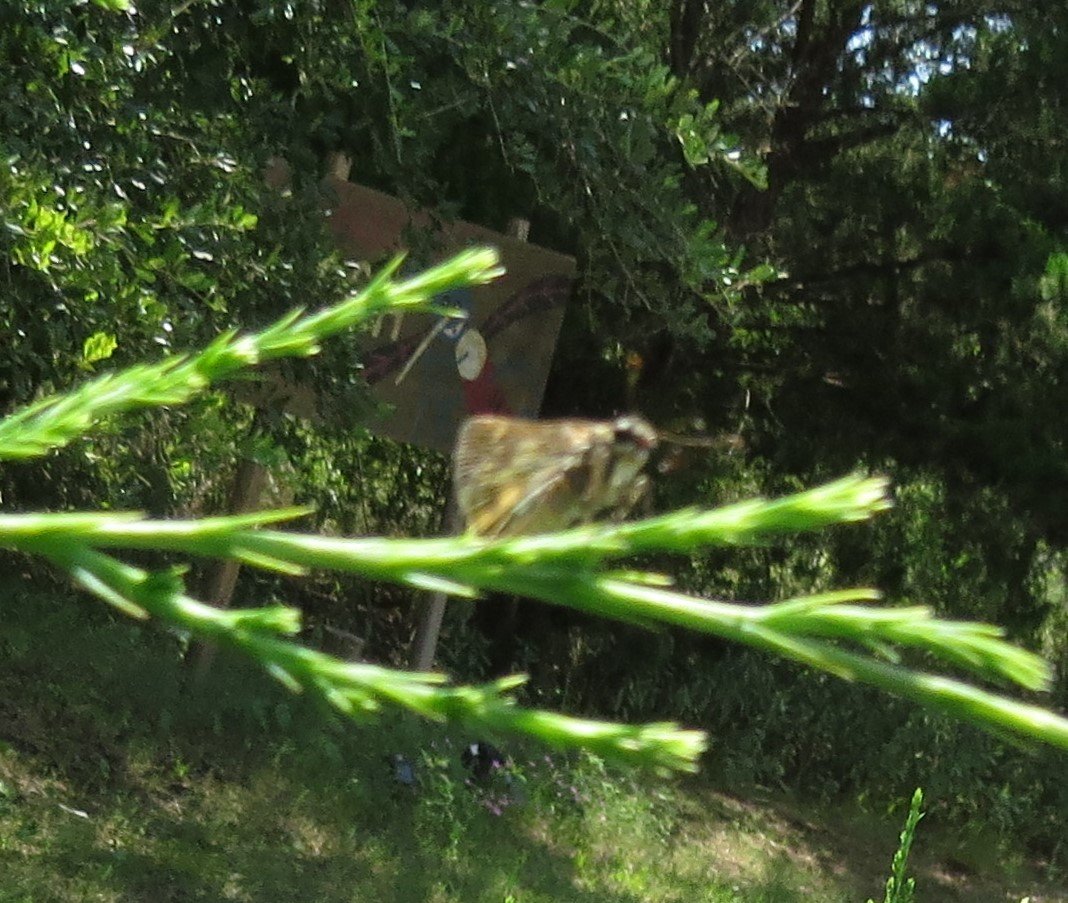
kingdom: Animalia
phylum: Arthropoda
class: Insecta
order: Lepidoptera
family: Hesperiidae
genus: Polites
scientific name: Polites vibex
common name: Whirlabout
